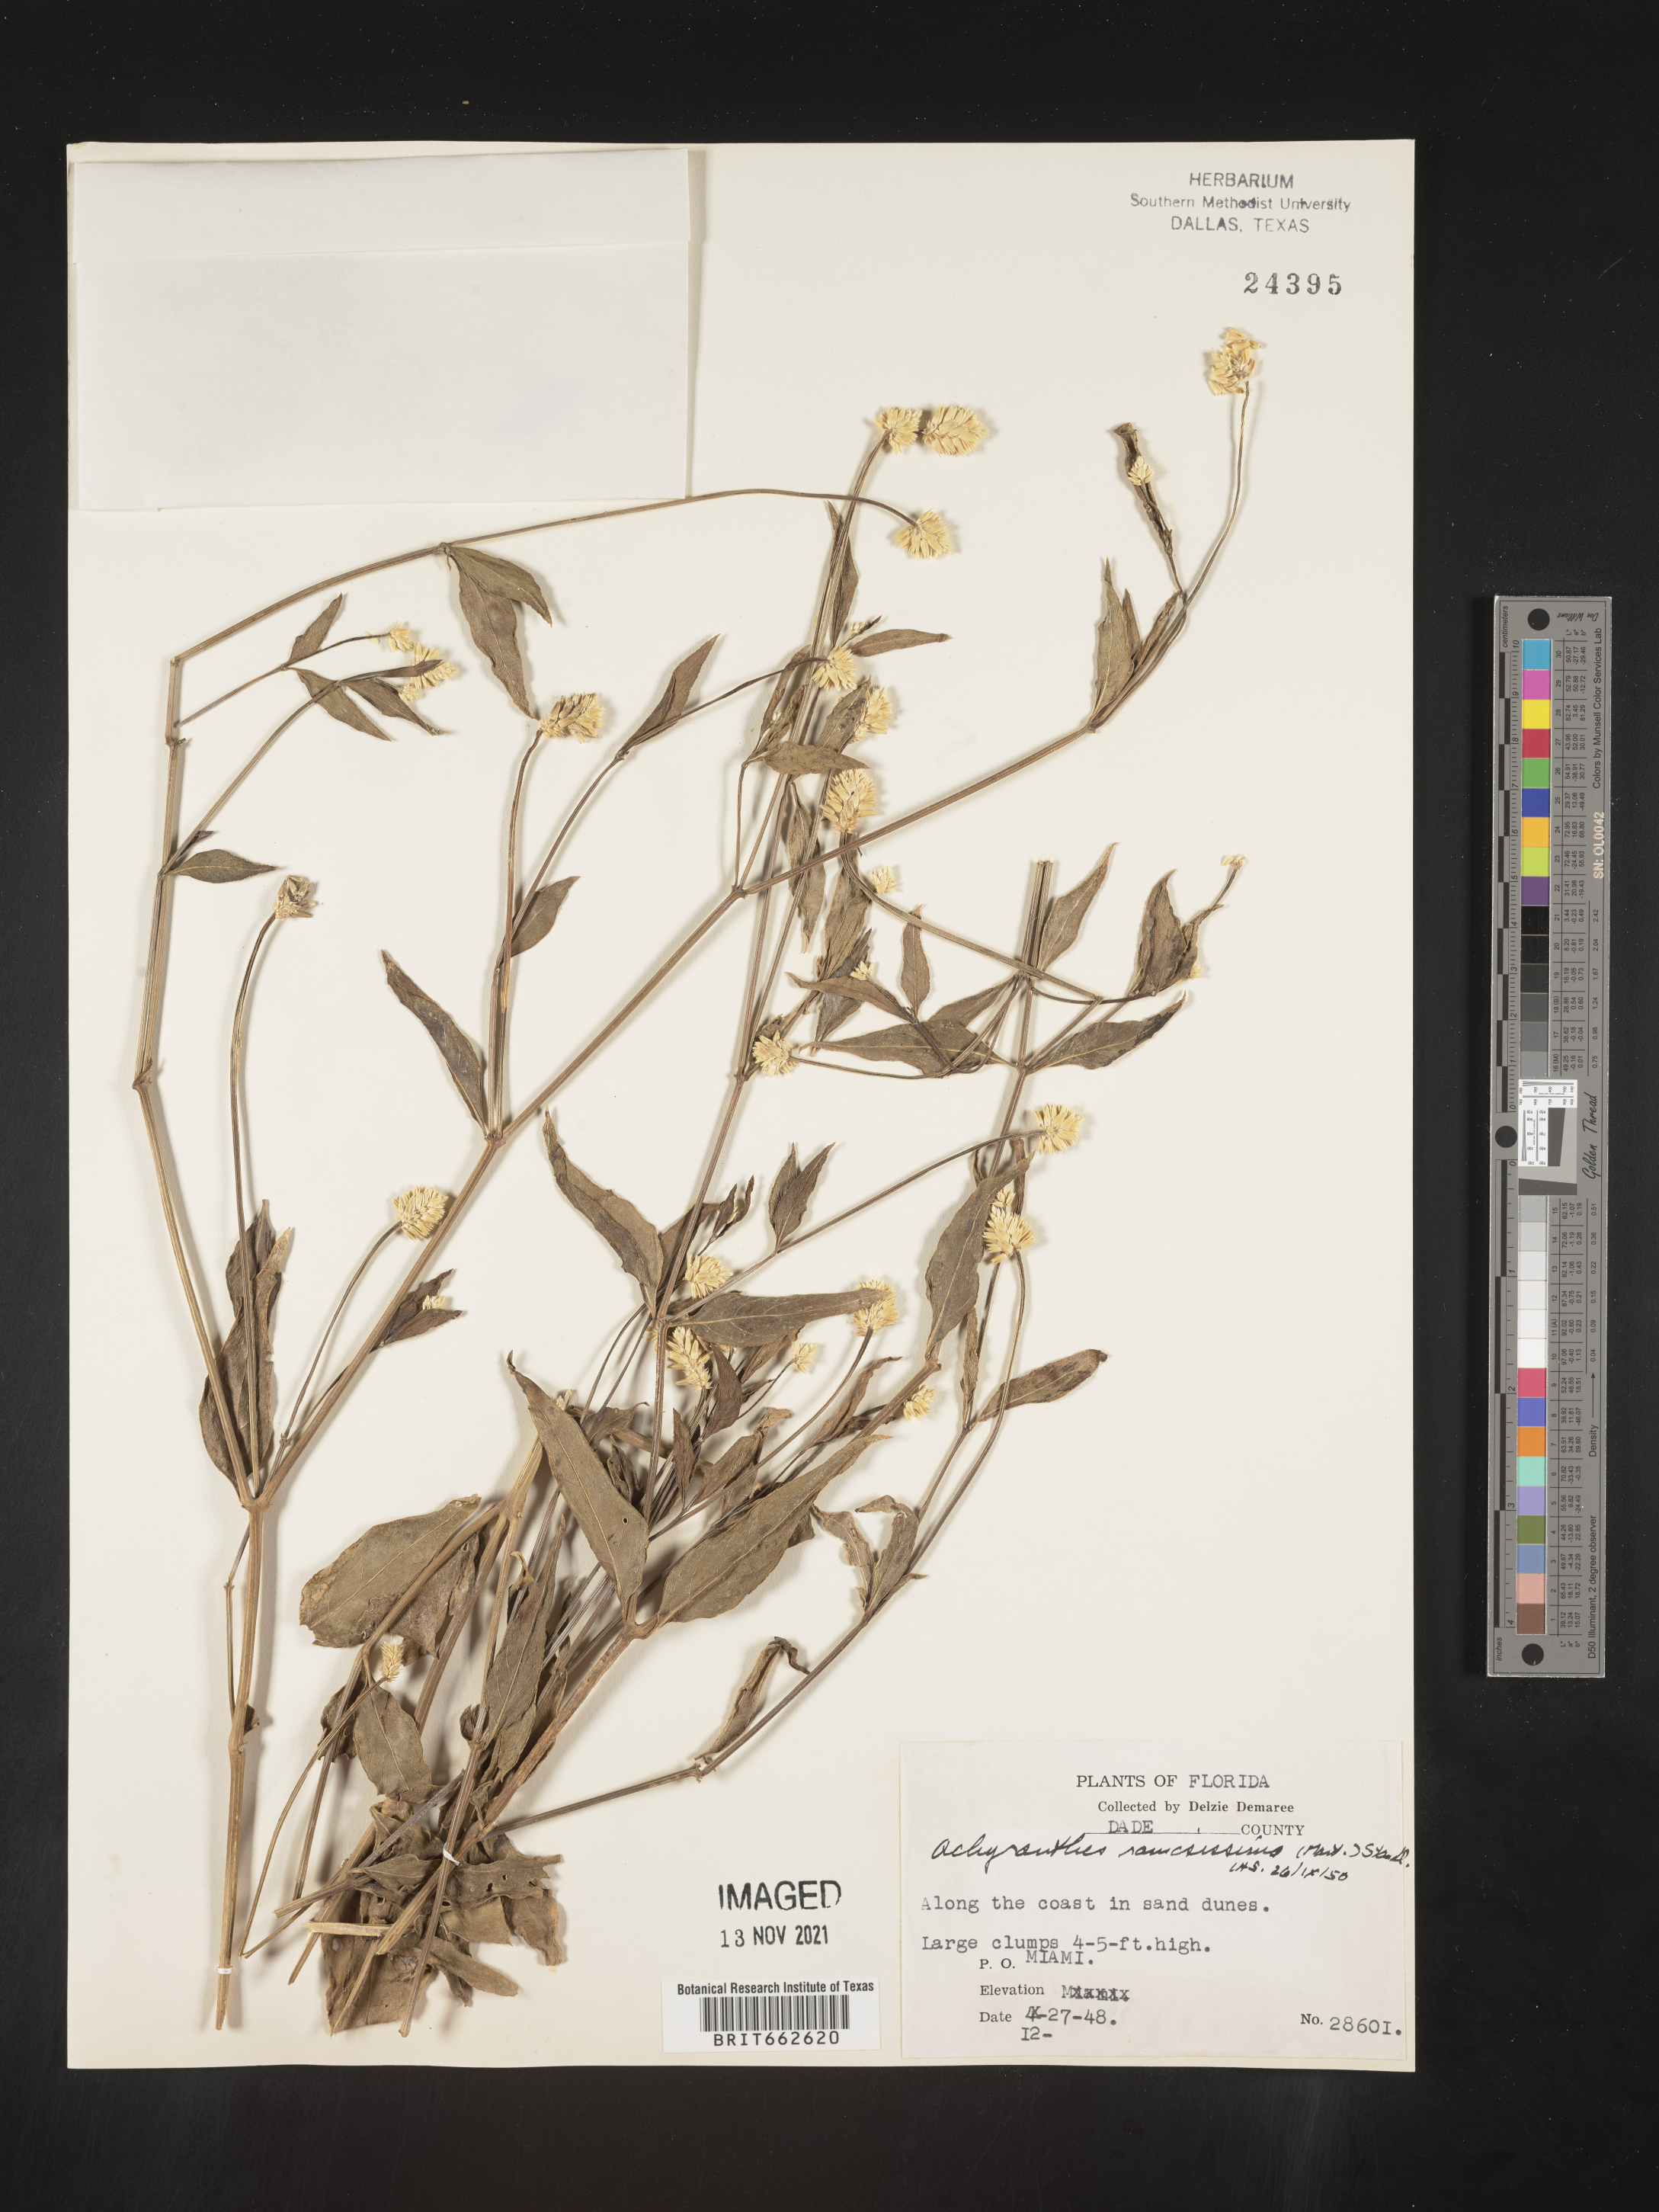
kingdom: Plantae
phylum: Tracheophyta
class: Magnoliopsida
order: Caryophyllales
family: Amaranthaceae
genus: Alternanthera
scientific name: Alternanthera ramosissima
